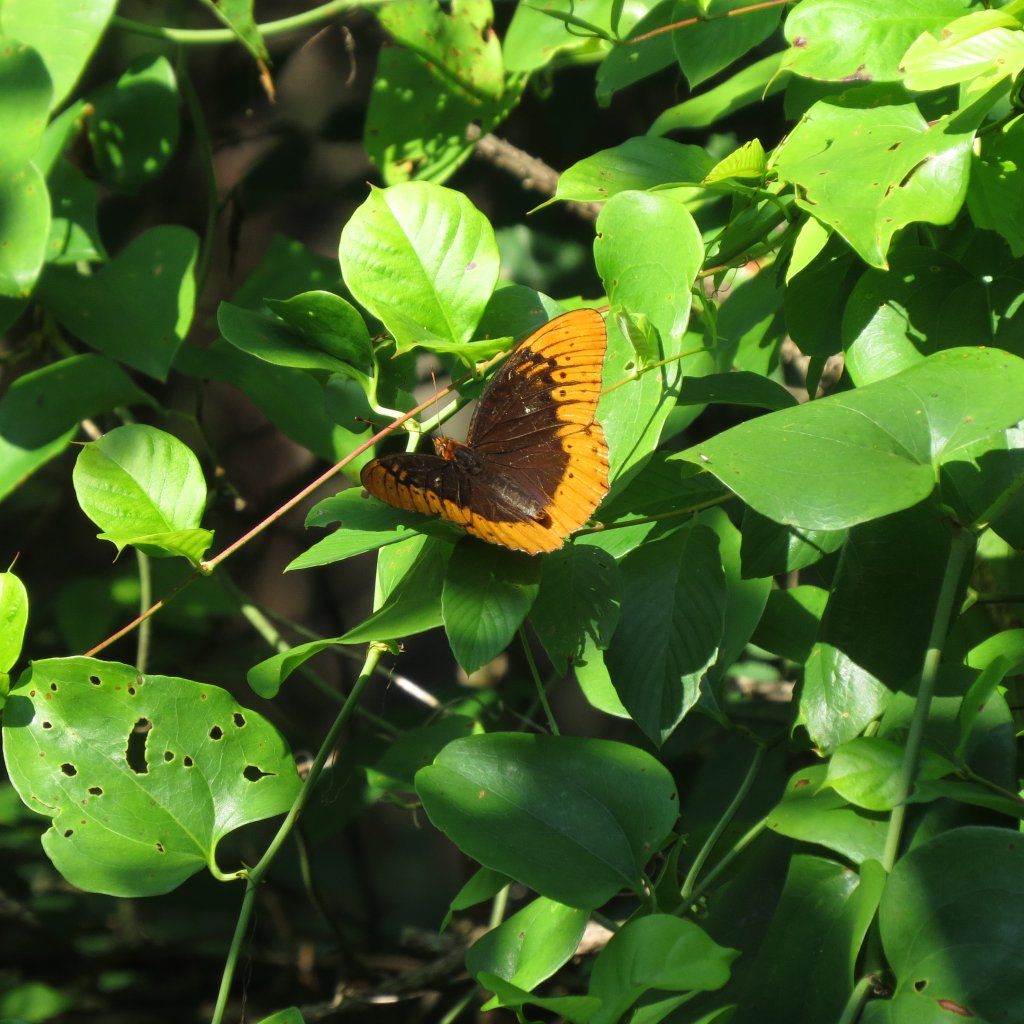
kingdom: Animalia
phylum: Arthropoda
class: Insecta
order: Lepidoptera
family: Nymphalidae
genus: Speyeria
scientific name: Speyeria diana
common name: Diana Fritillary
